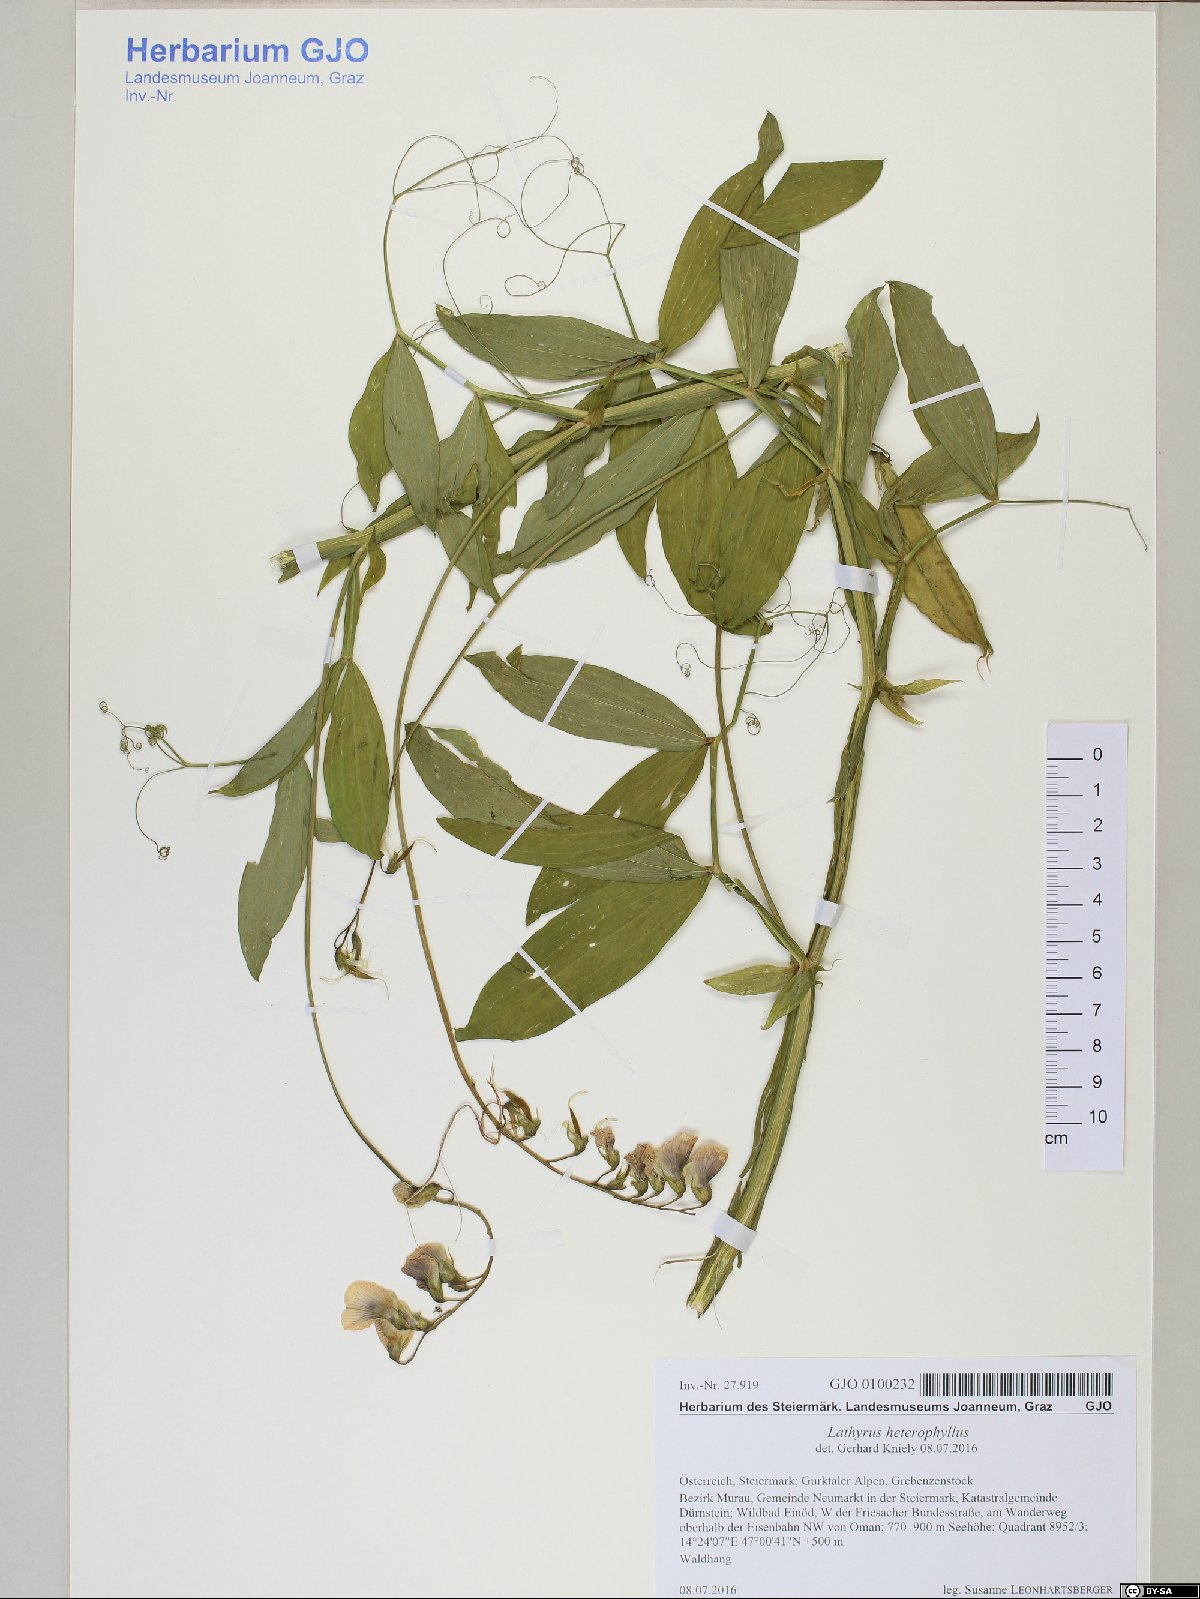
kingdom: Plantae
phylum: Tracheophyta
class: Magnoliopsida
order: Fabales
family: Fabaceae
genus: Lathyrus
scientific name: Lathyrus heterophyllus
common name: Norfolk everlasting-pea
